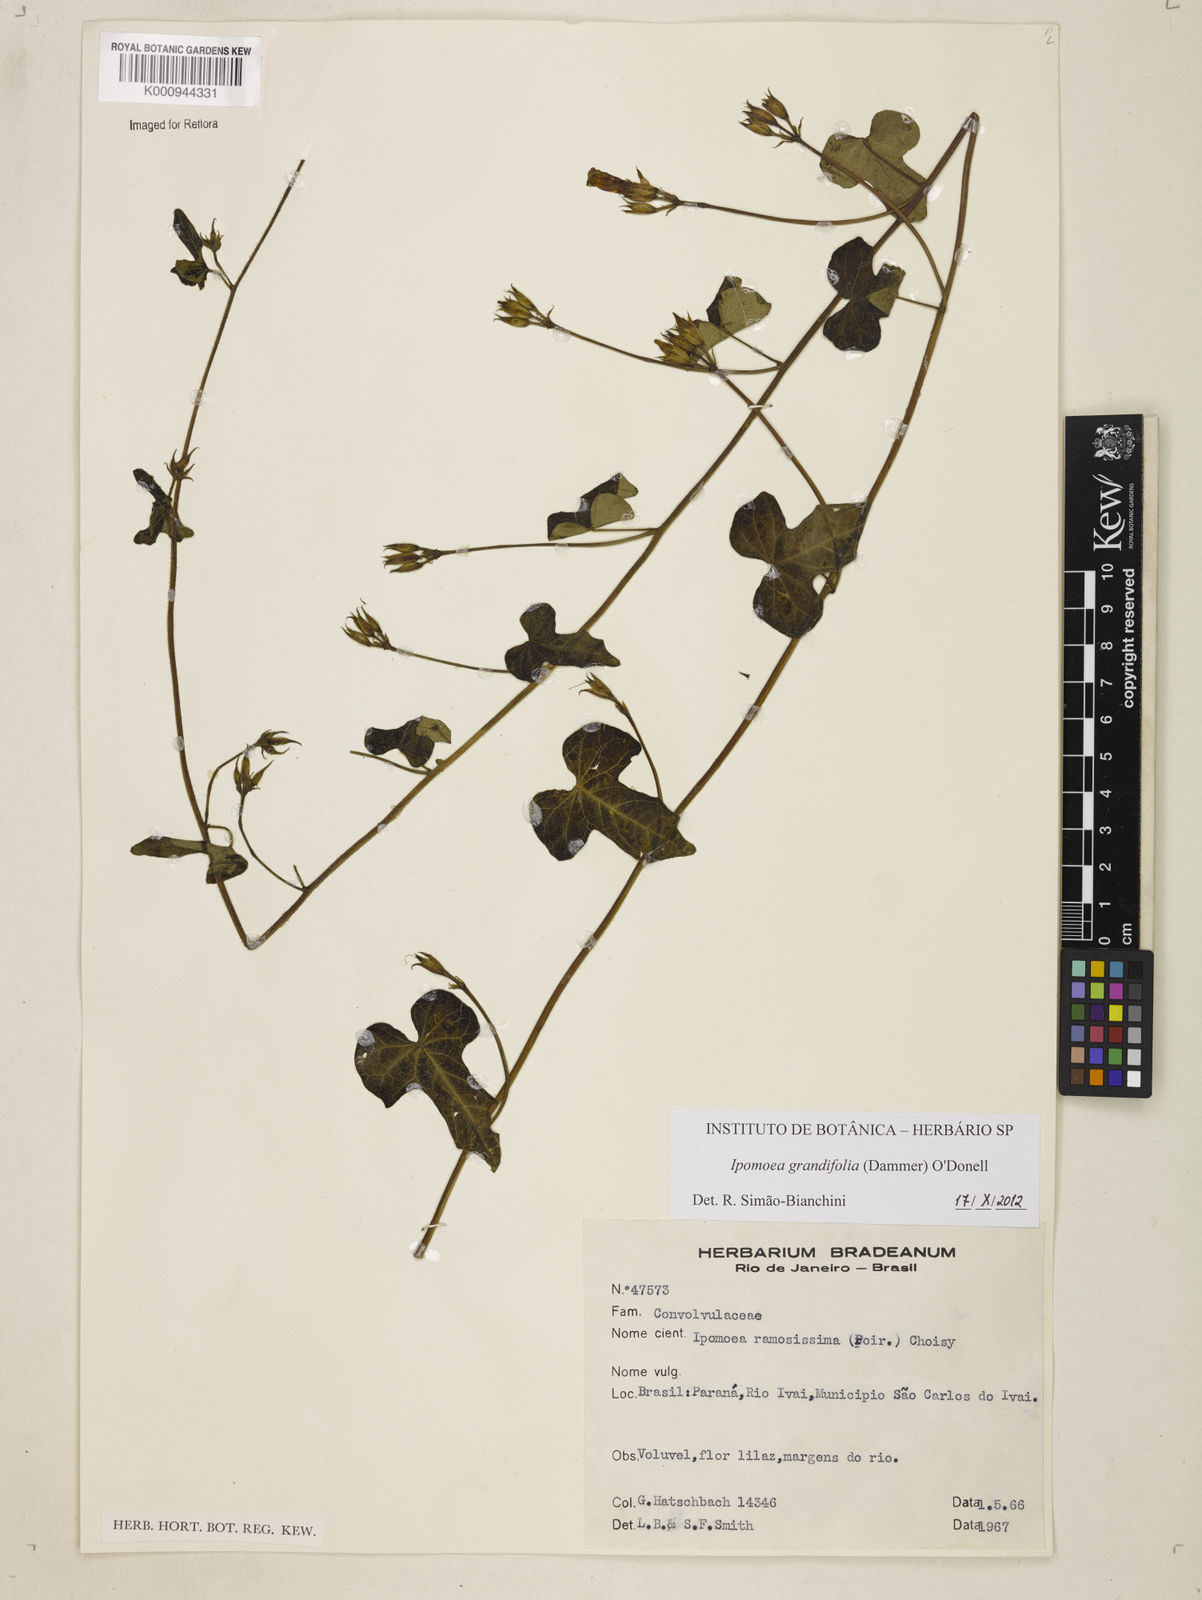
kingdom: Plantae
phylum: Tracheophyta
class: Magnoliopsida
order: Solanales
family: Convolvulaceae
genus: Ipomoea
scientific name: Ipomoea grandifolia
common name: Aiea morning glory
